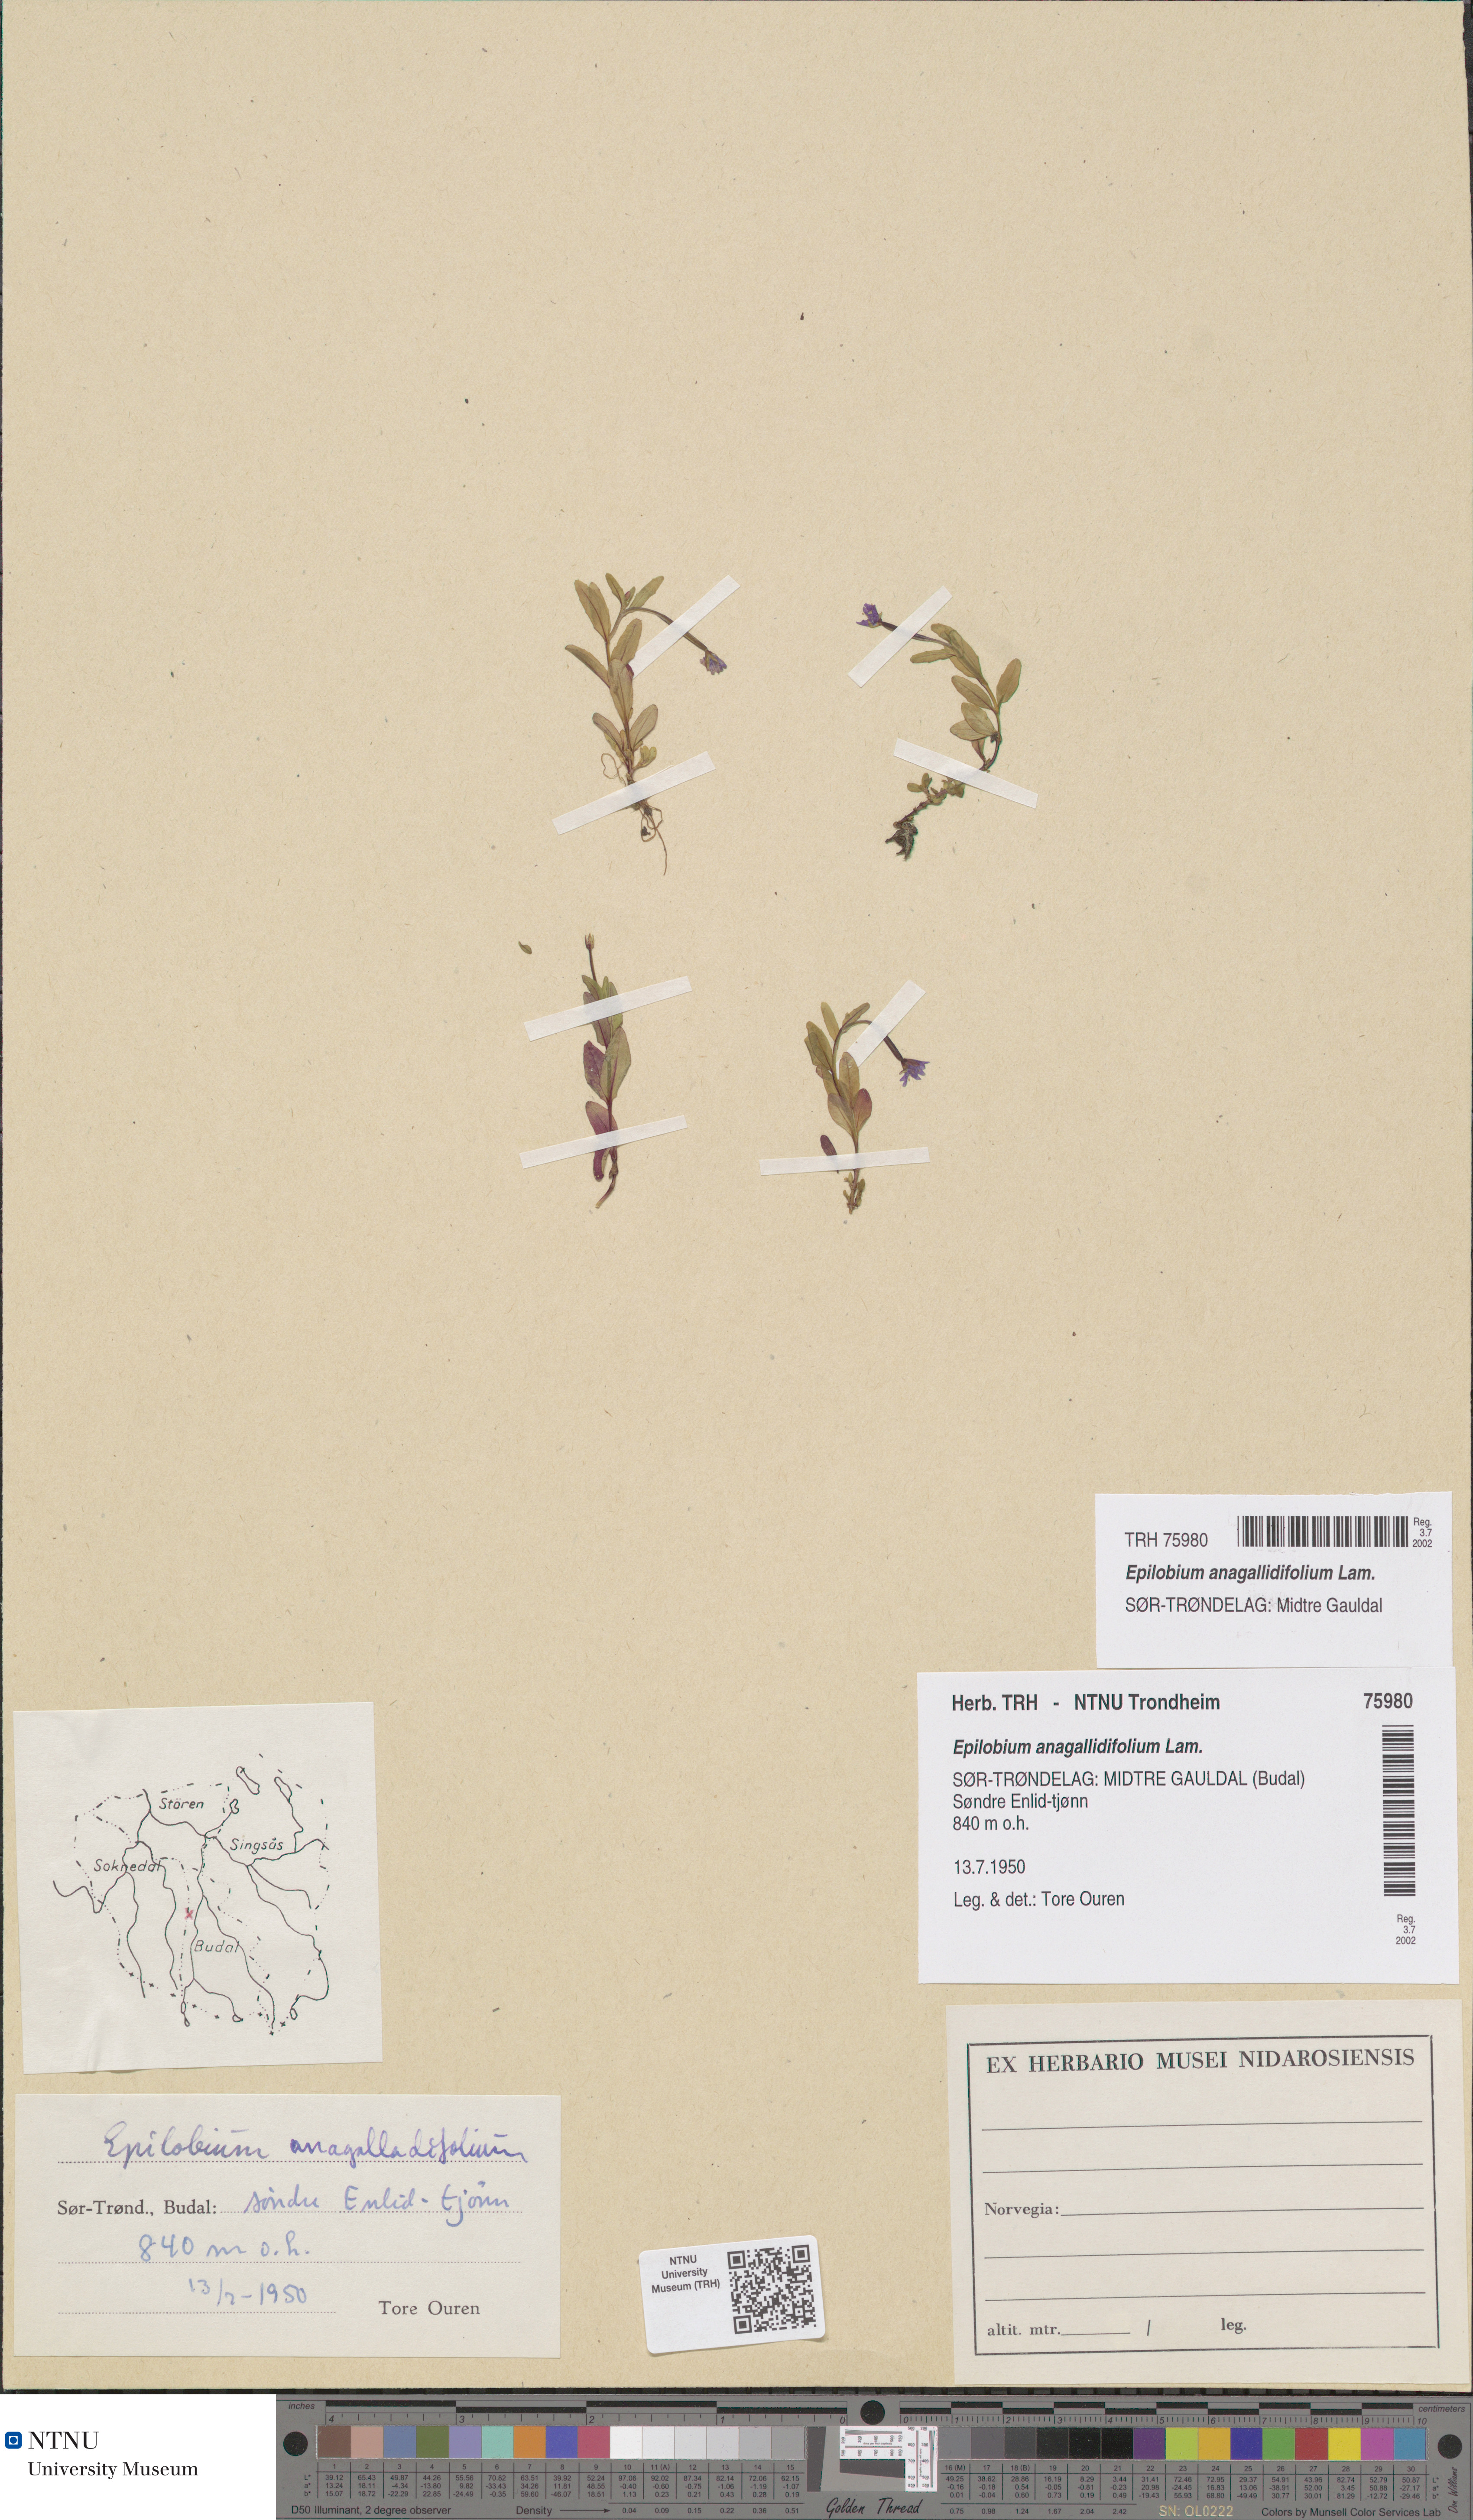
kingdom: Plantae
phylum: Tracheophyta
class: Magnoliopsida
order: Myrtales
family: Onagraceae
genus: Epilobium
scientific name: Epilobium anagallidifolium
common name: Alpine willowherb
